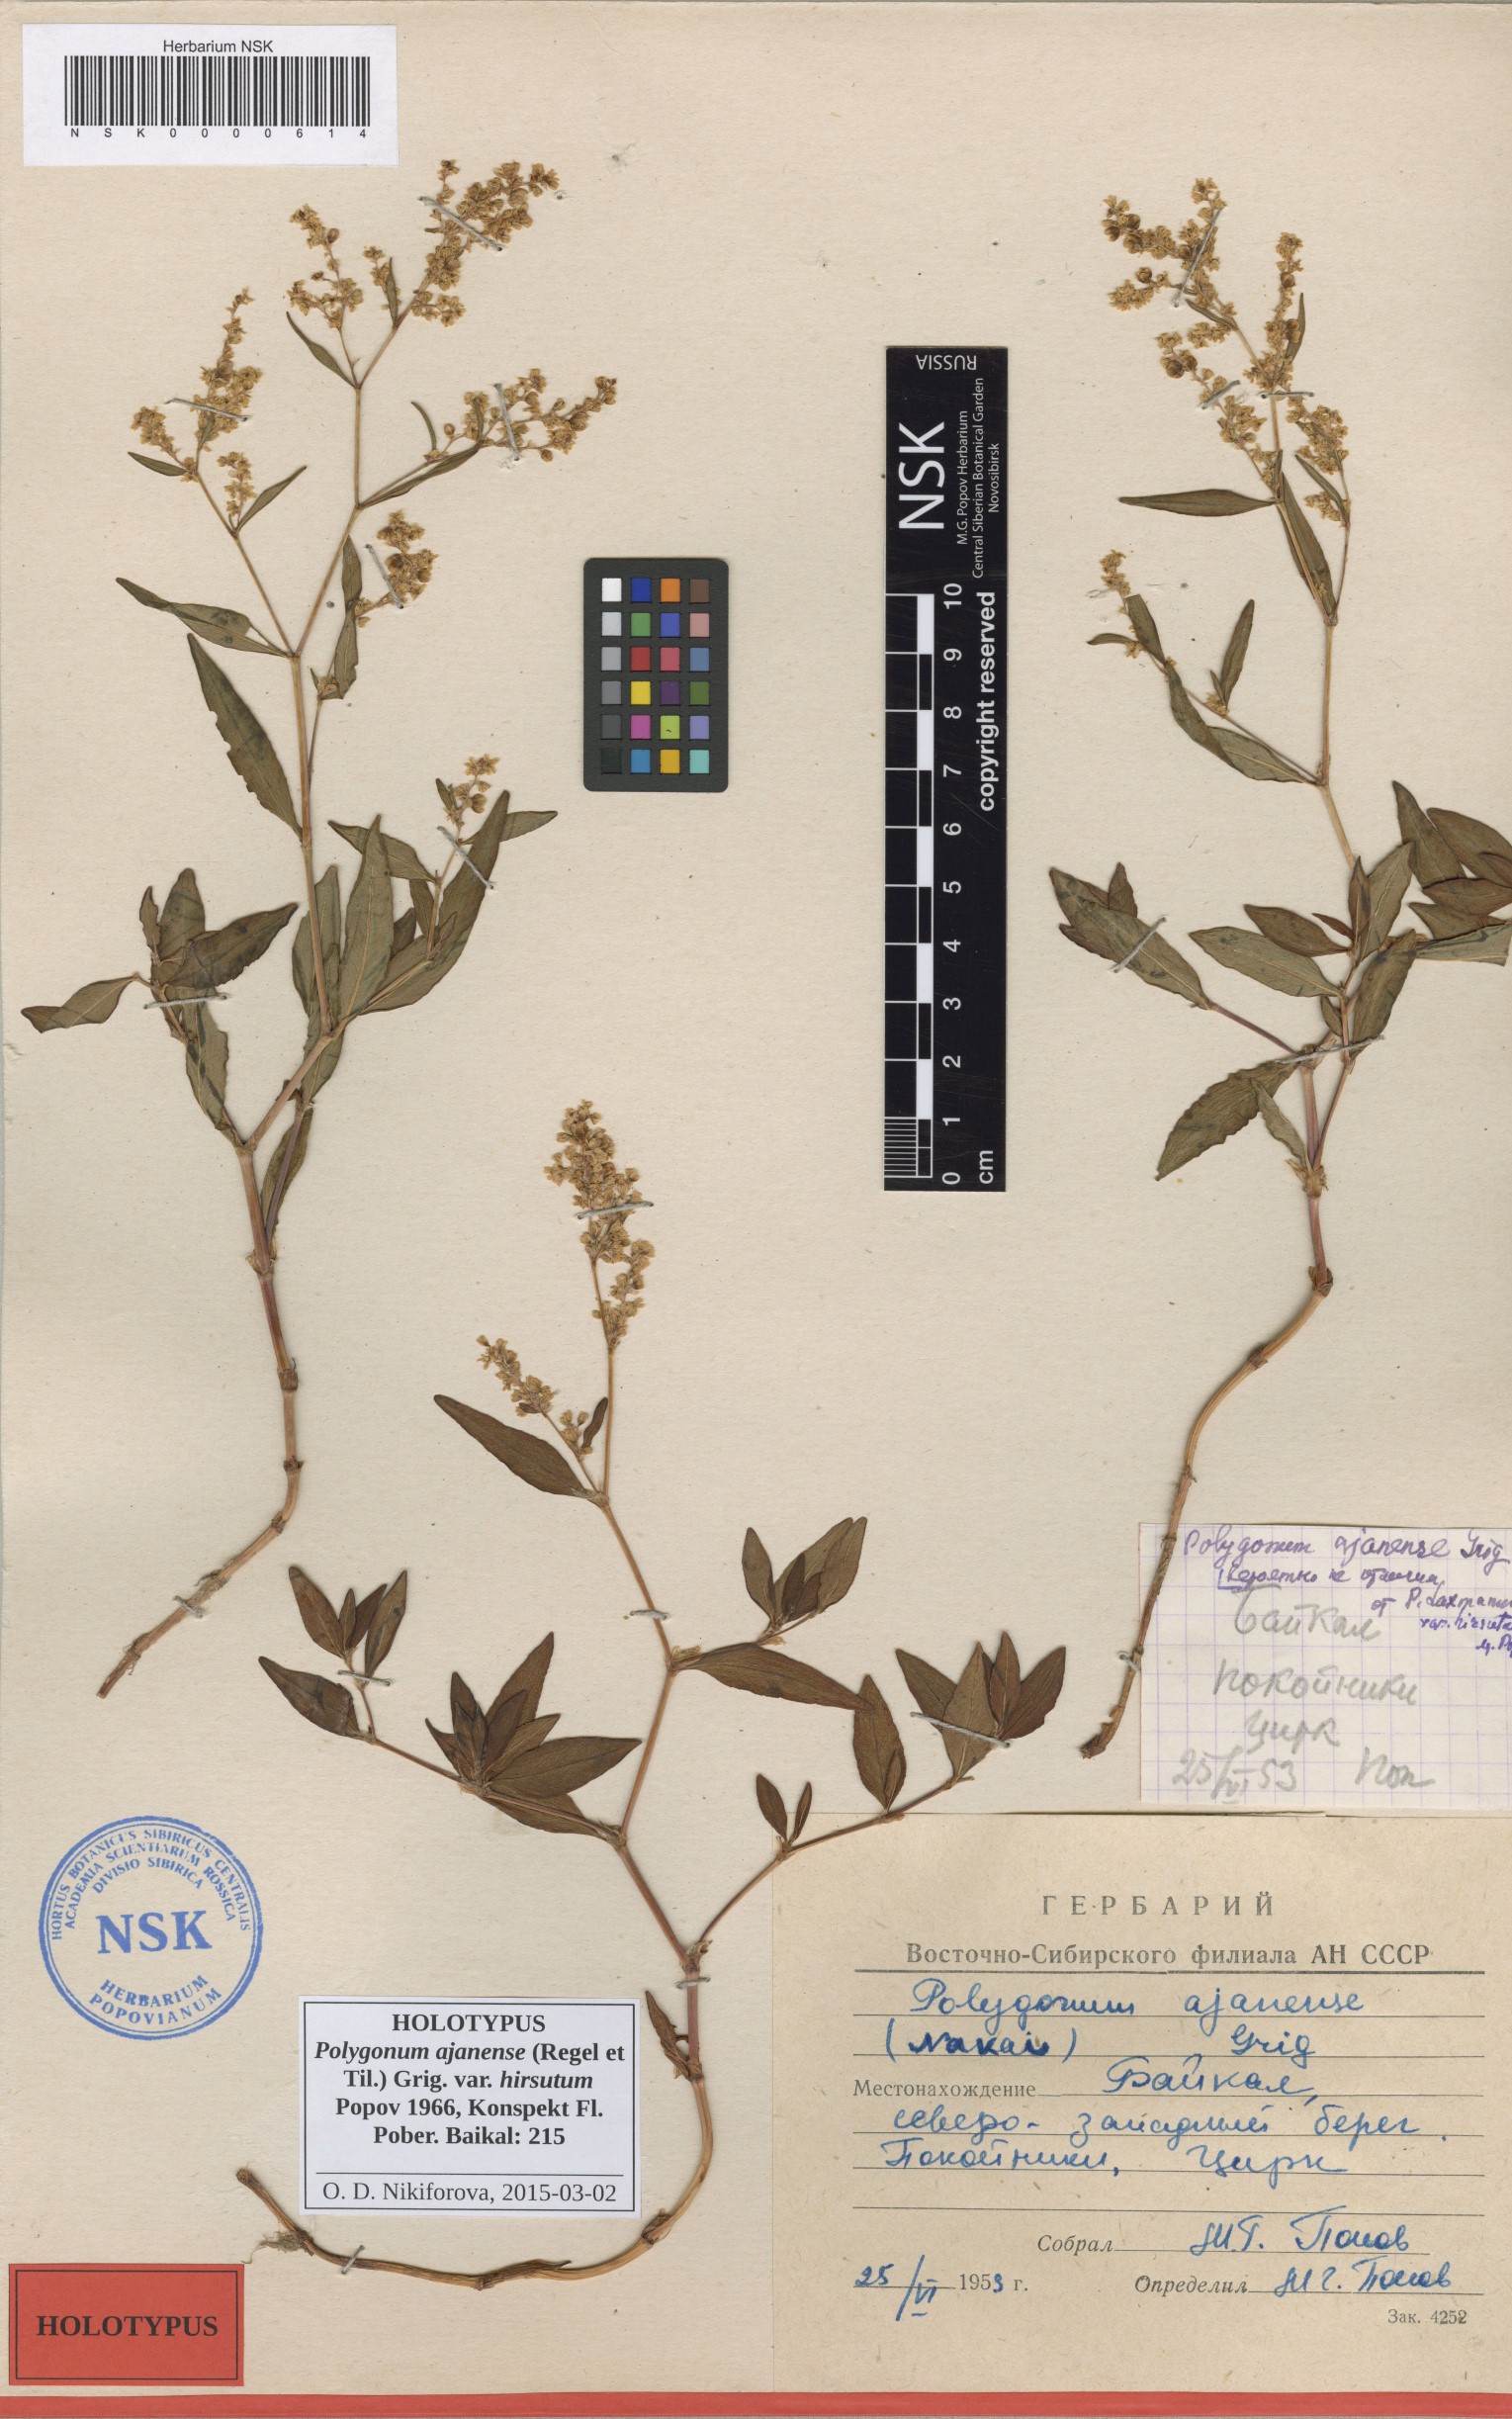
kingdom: Plantae
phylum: Tracheophyta
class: Magnoliopsida
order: Caryophyllales
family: Polygonaceae
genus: Polygonum
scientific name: Polygonum ajanense
